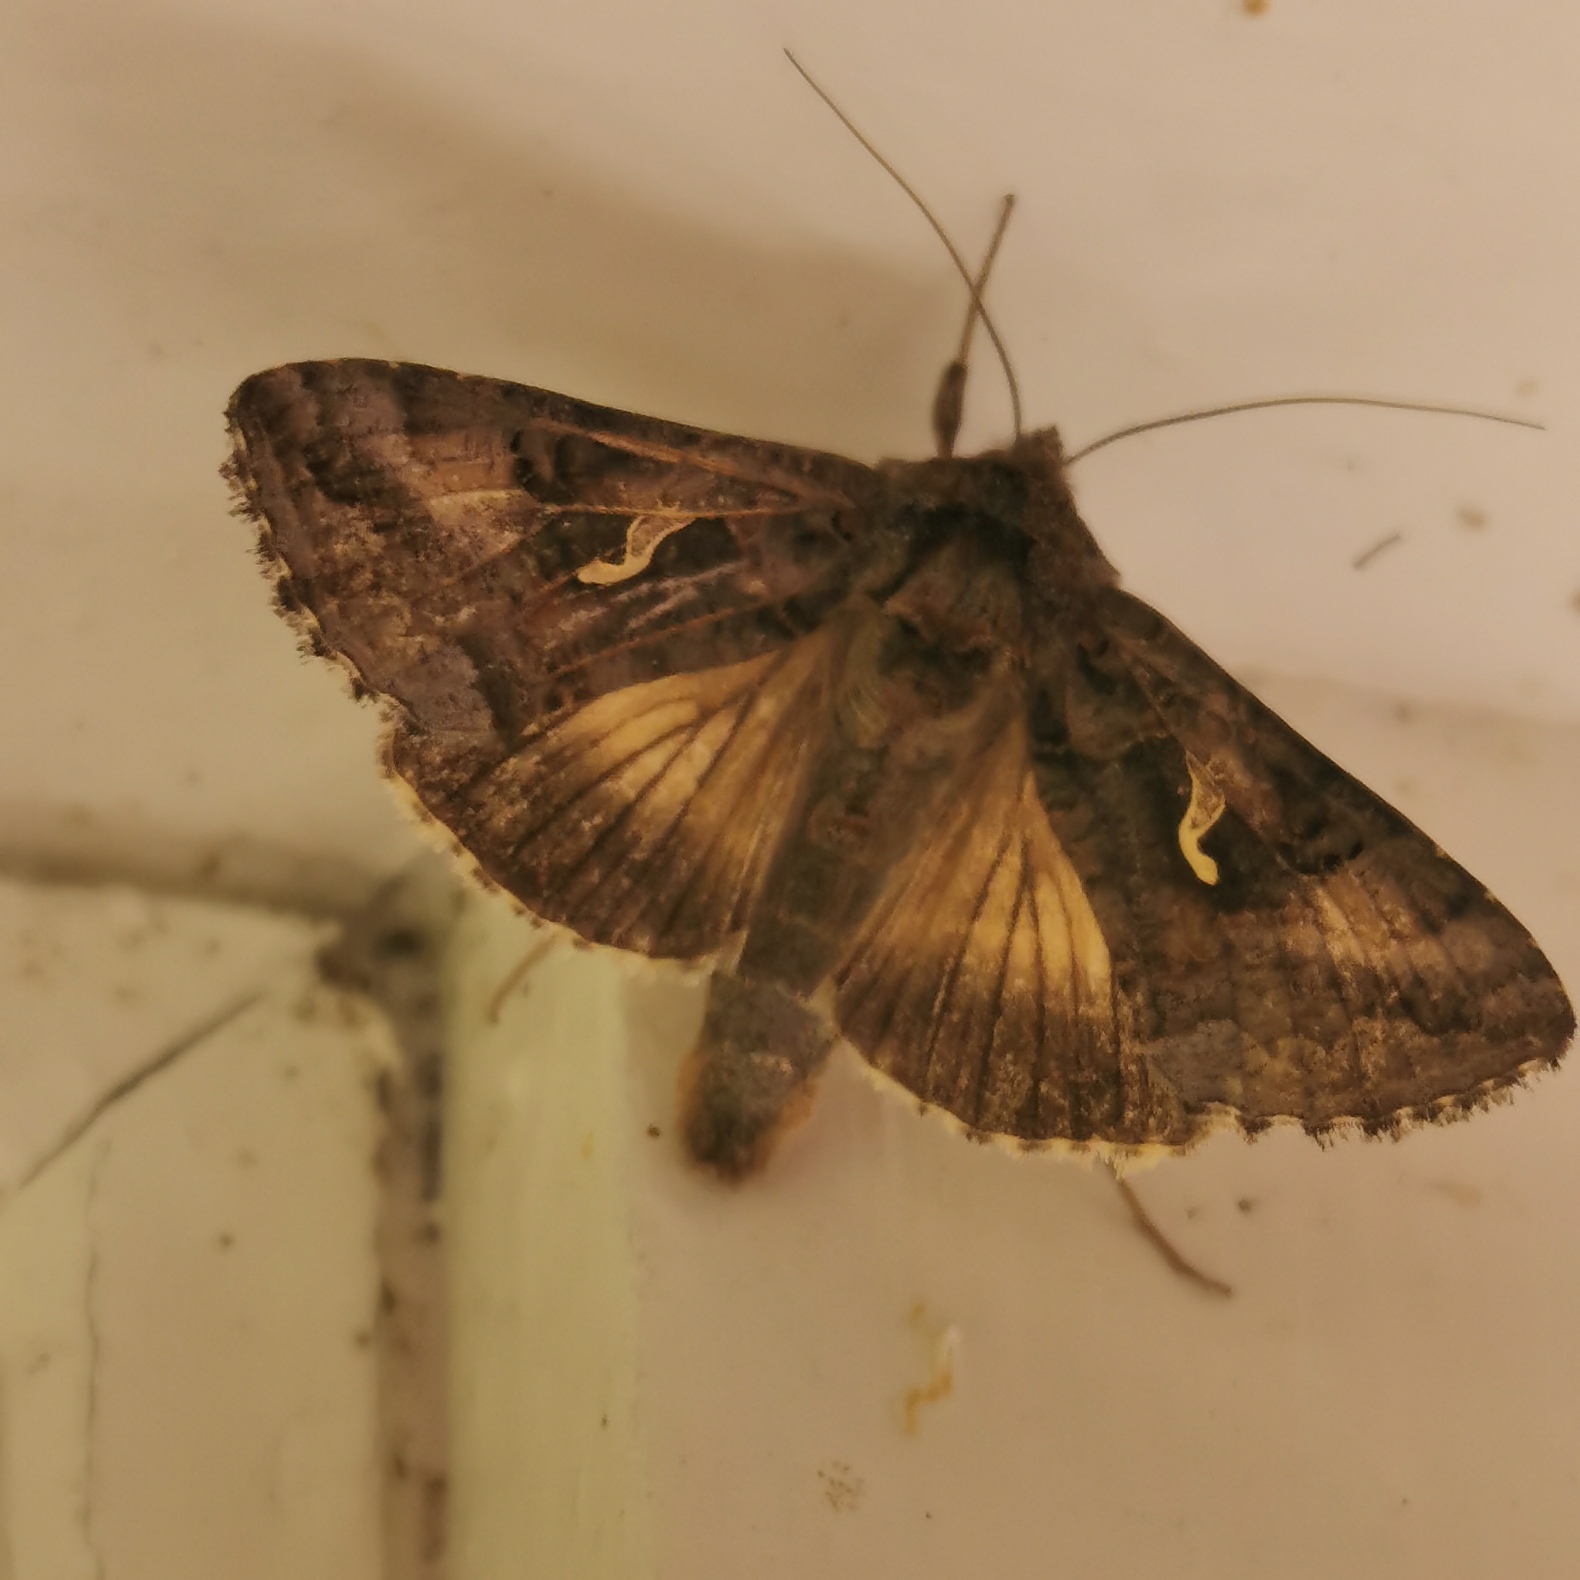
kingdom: Animalia
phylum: Arthropoda
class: Insecta
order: Lepidoptera
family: Noctuidae
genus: Autographa
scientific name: Autographa gamma
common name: Gammaugle
